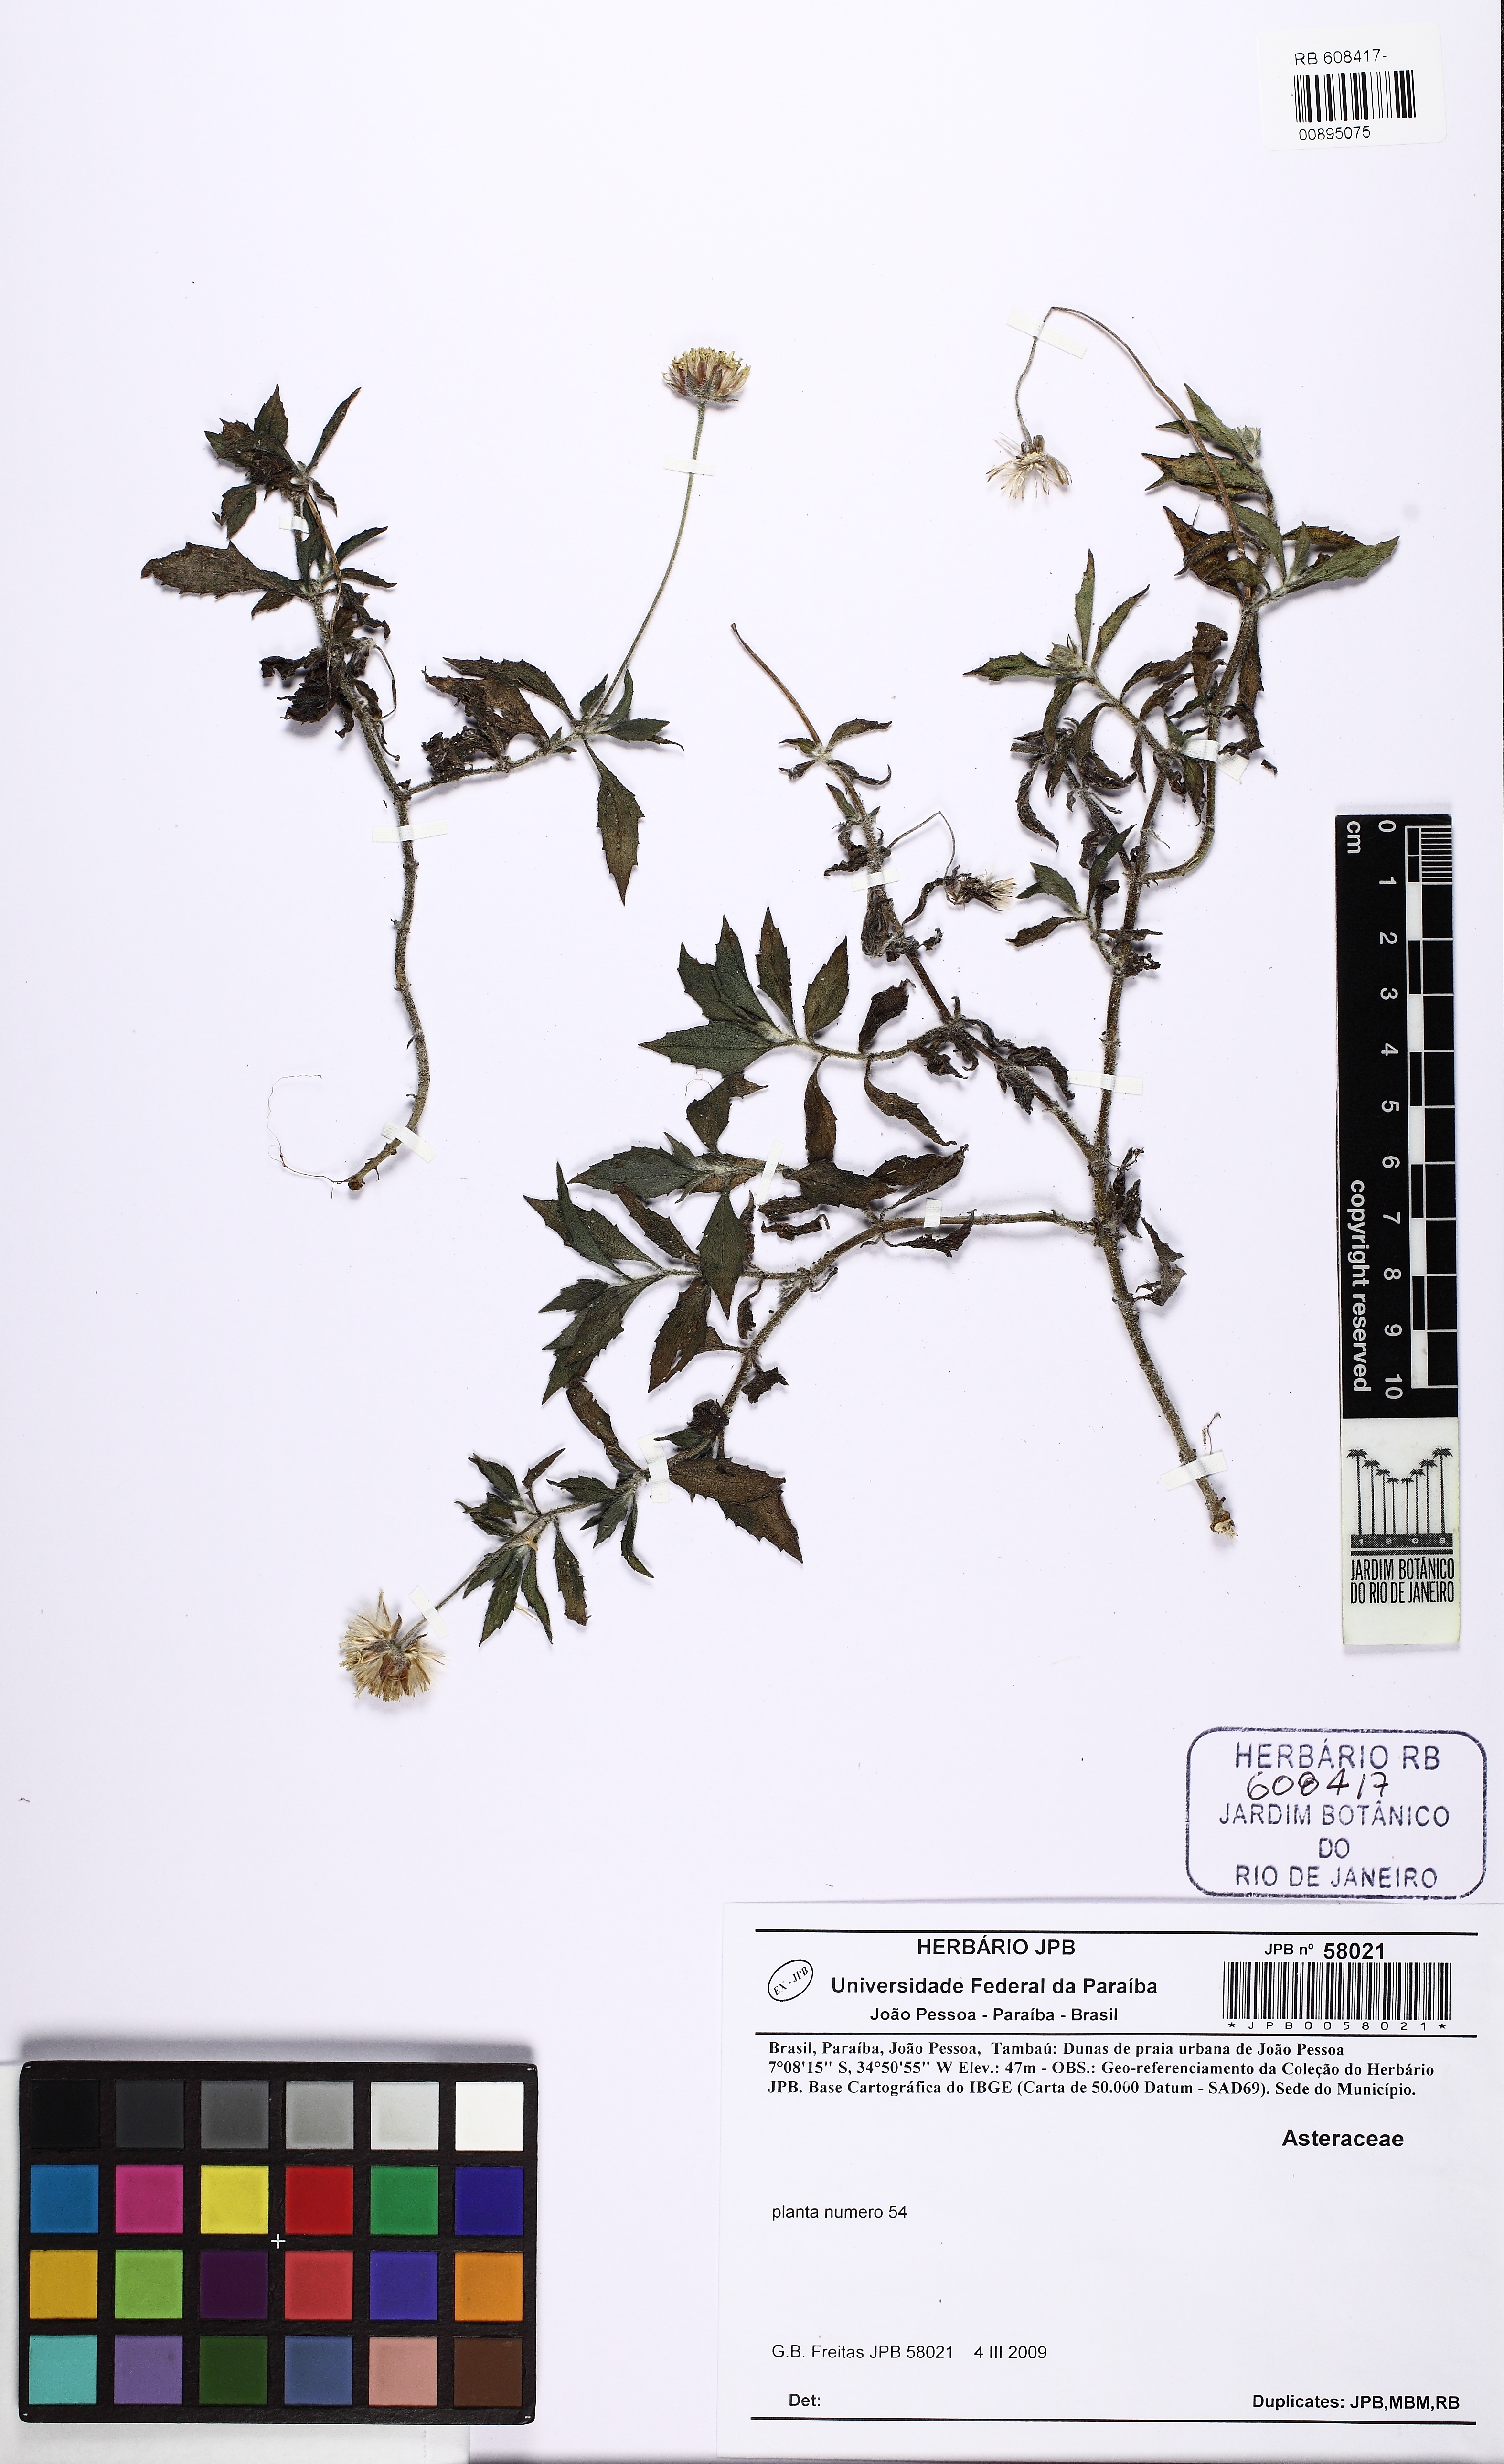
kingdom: Plantae
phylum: Tracheophyta
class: Magnoliopsida
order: Asterales
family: Asteraceae
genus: Tridax
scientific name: Tridax procumbens
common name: Coatbuttons
